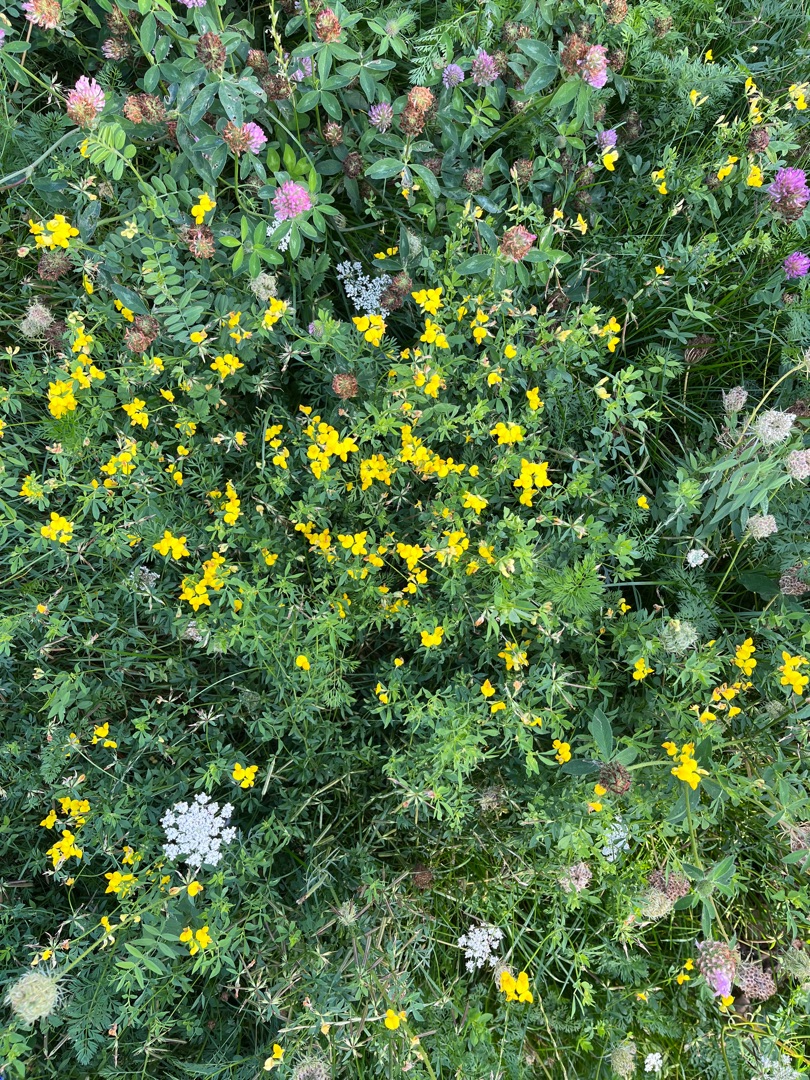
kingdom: Plantae
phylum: Tracheophyta
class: Magnoliopsida
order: Fabales
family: Fabaceae
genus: Lotus
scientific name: Lotus corniculatus
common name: Almindelig kællingetand
